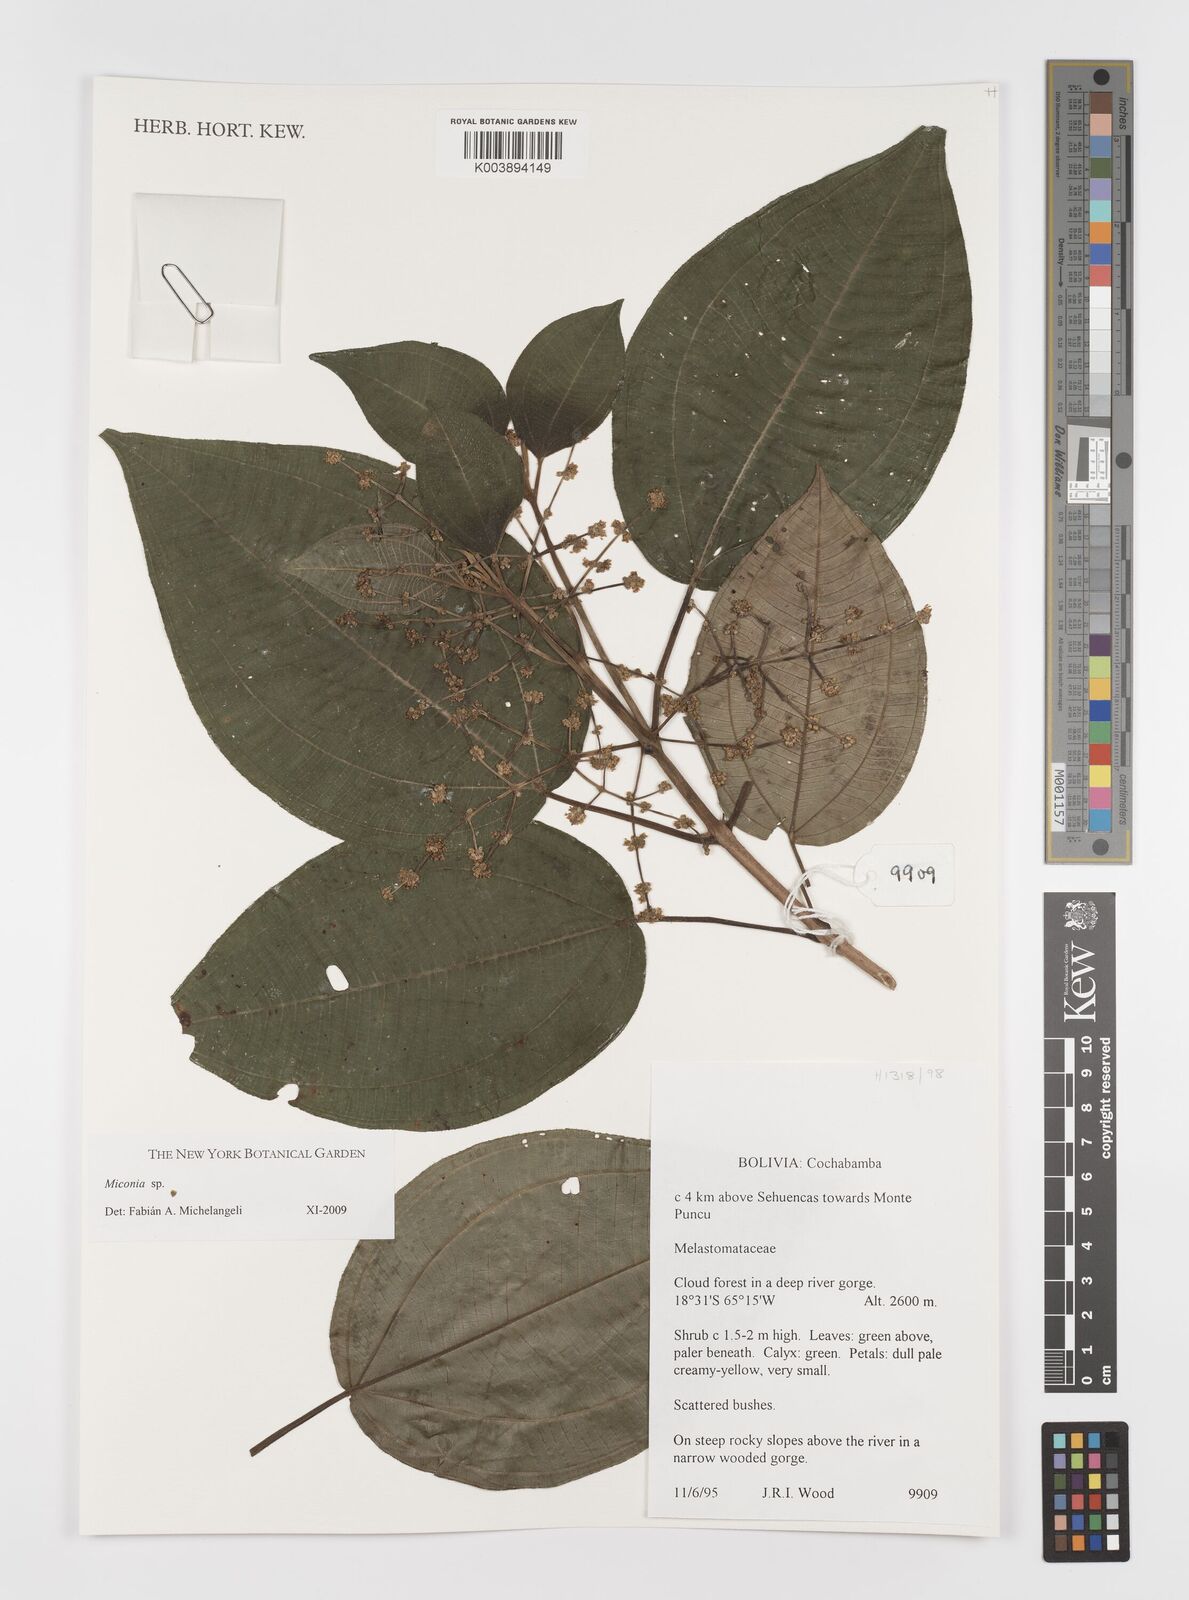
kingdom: Plantae
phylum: Tracheophyta
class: Magnoliopsida
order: Myrtales
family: Melastomataceae
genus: Miconia
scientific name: Miconia
